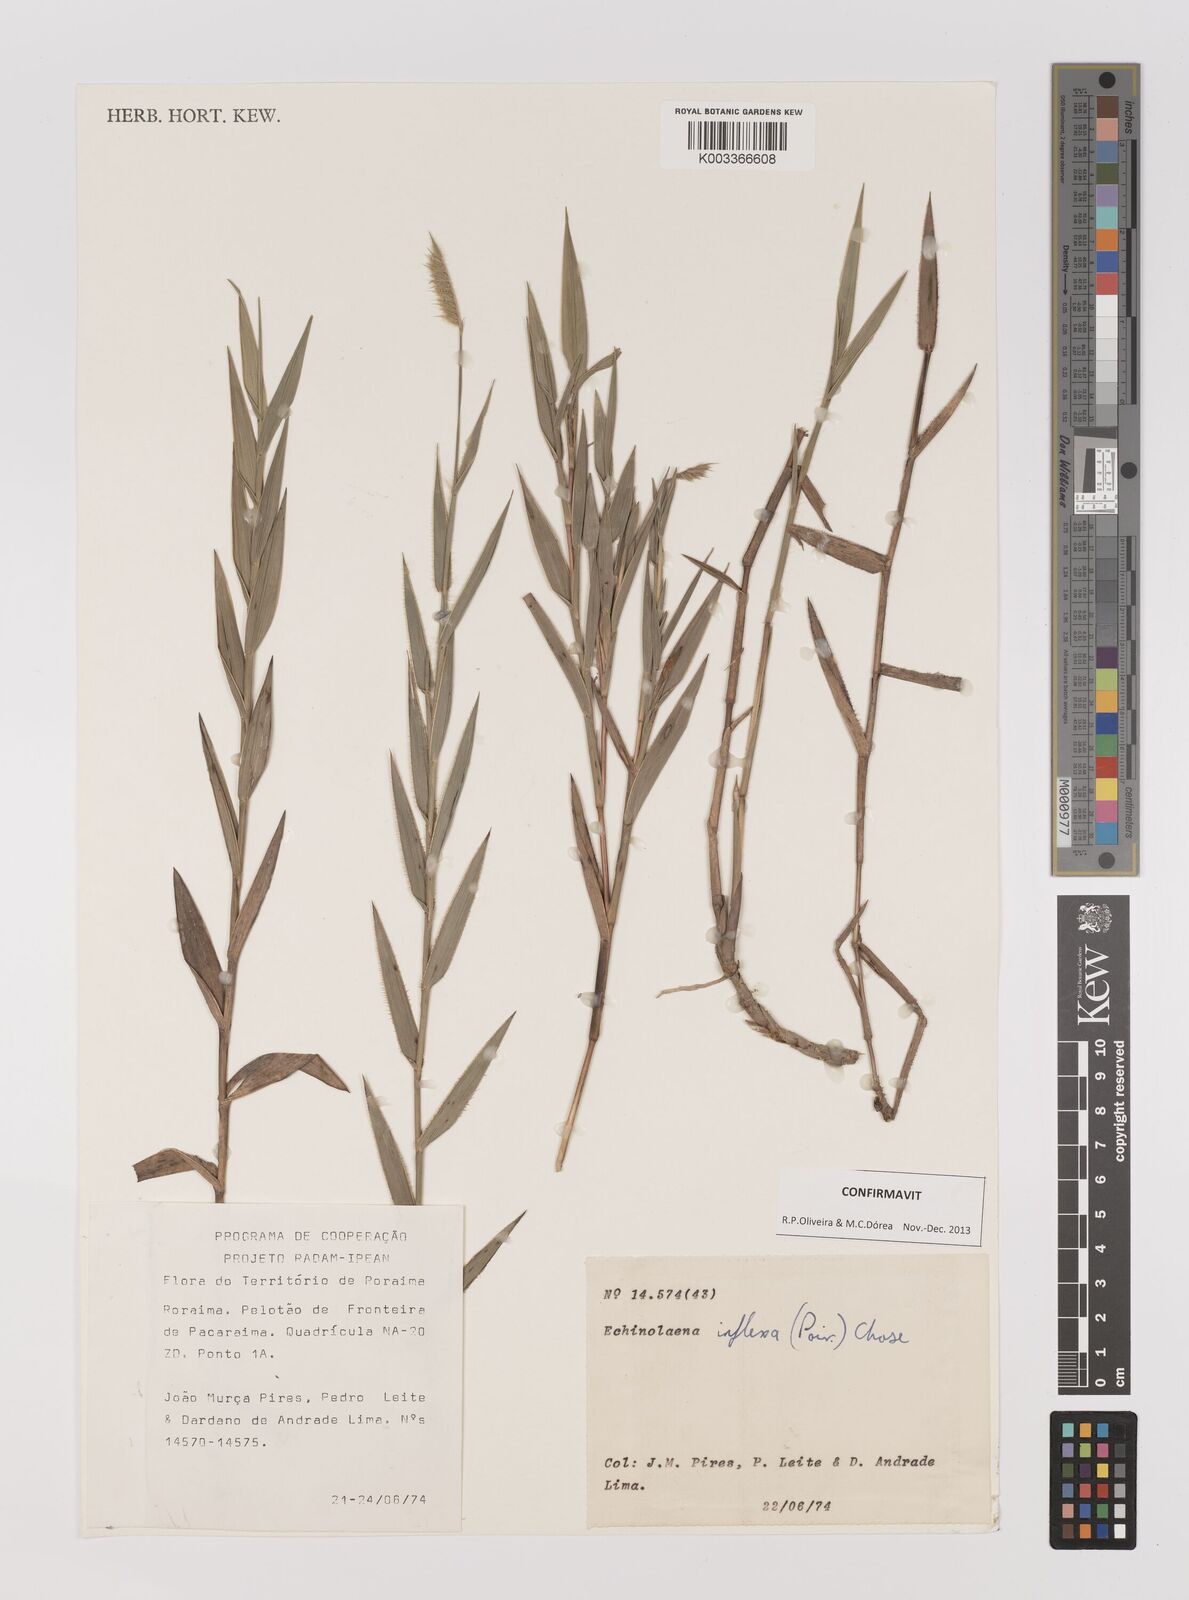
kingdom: Plantae
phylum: Tracheophyta
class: Liliopsida
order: Poales
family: Poaceae
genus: Echinolaena
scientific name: Echinolaena inflexa
